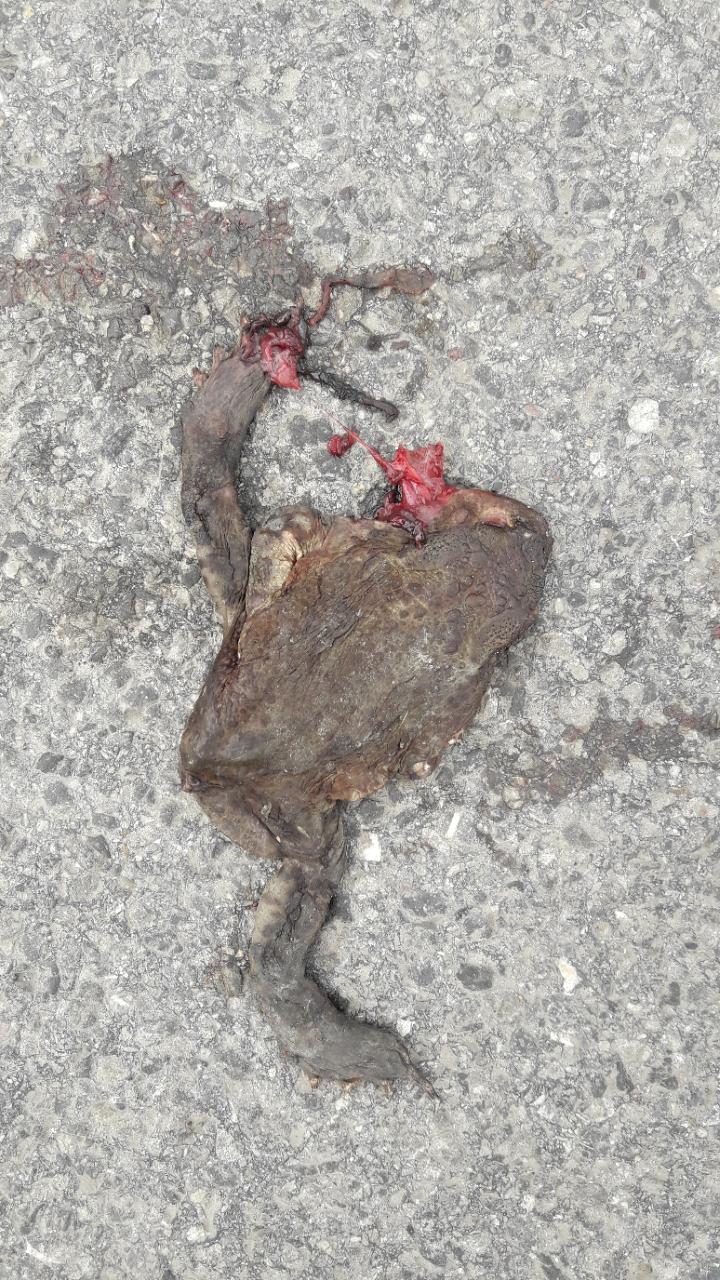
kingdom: Animalia
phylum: Chordata
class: Amphibia
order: Anura
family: Bufonidae
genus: Bufo
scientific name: Bufo bufo
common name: Common toad
